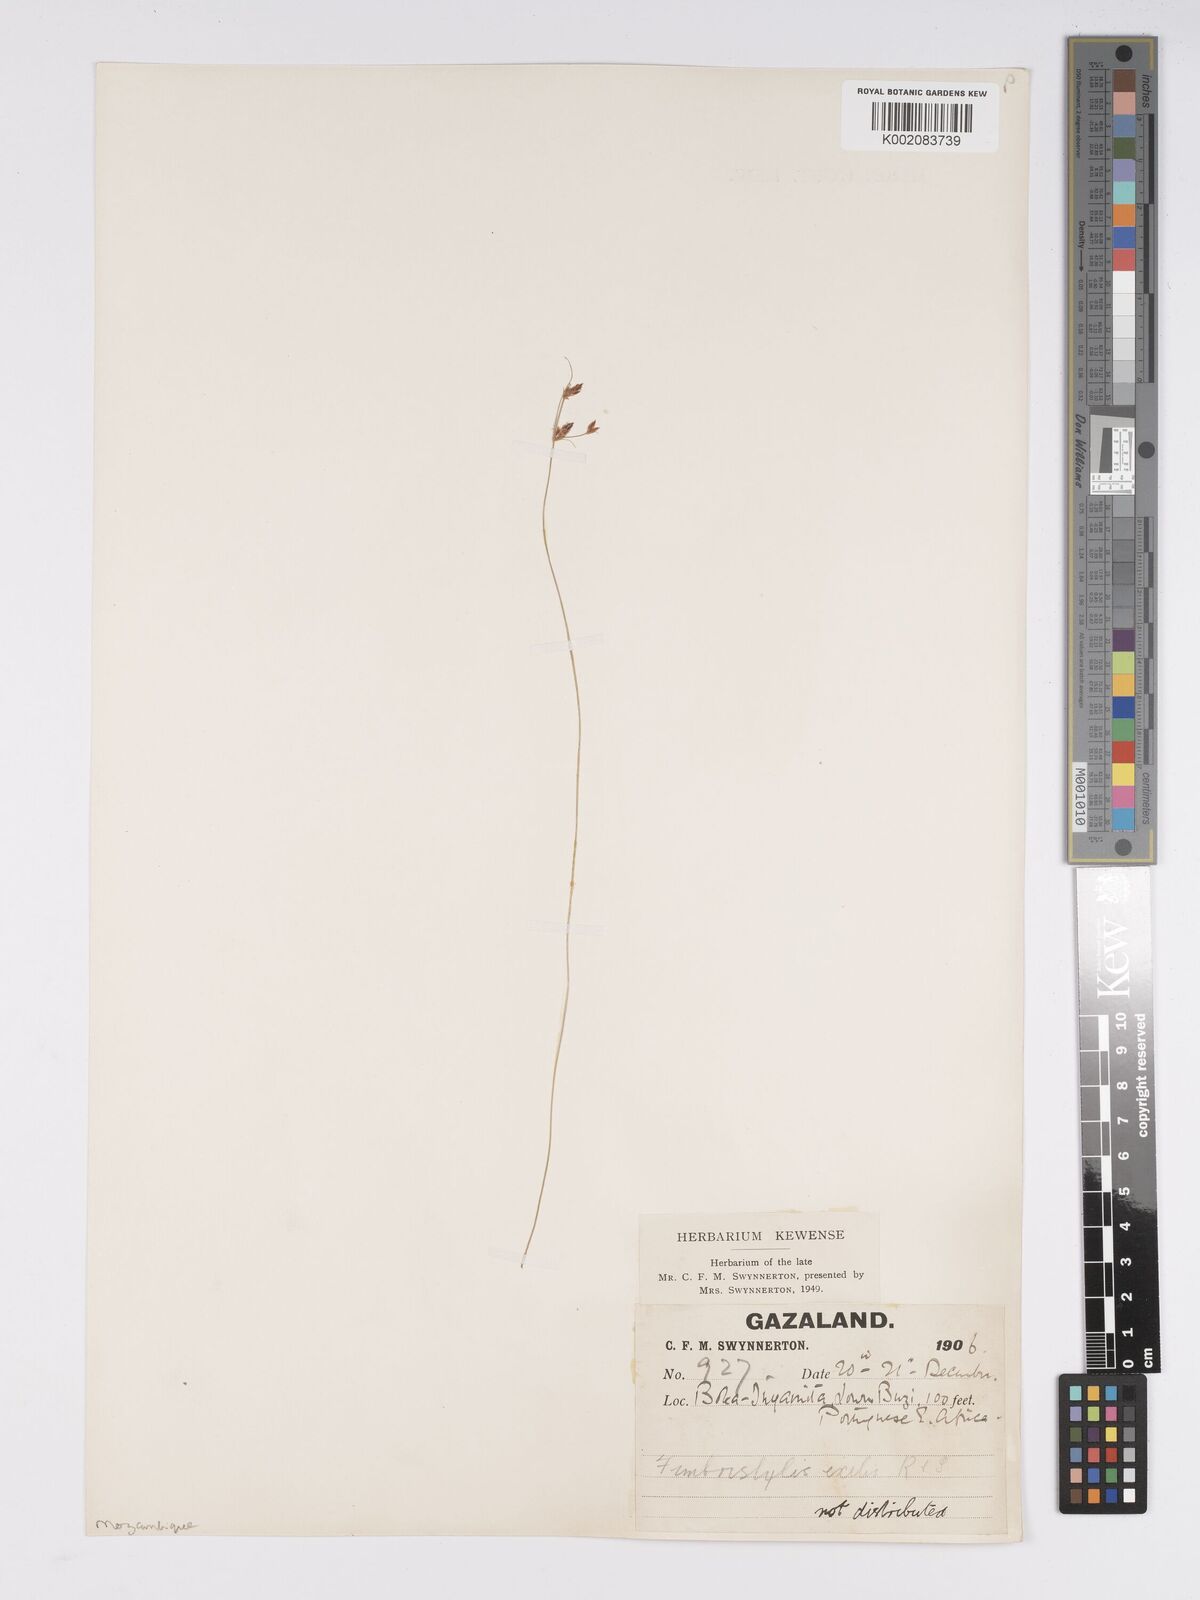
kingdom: Plantae
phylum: Tracheophyta
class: Liliopsida
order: Poales
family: Cyperaceae
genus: Bulbostylis
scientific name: Bulbostylis hispidula
